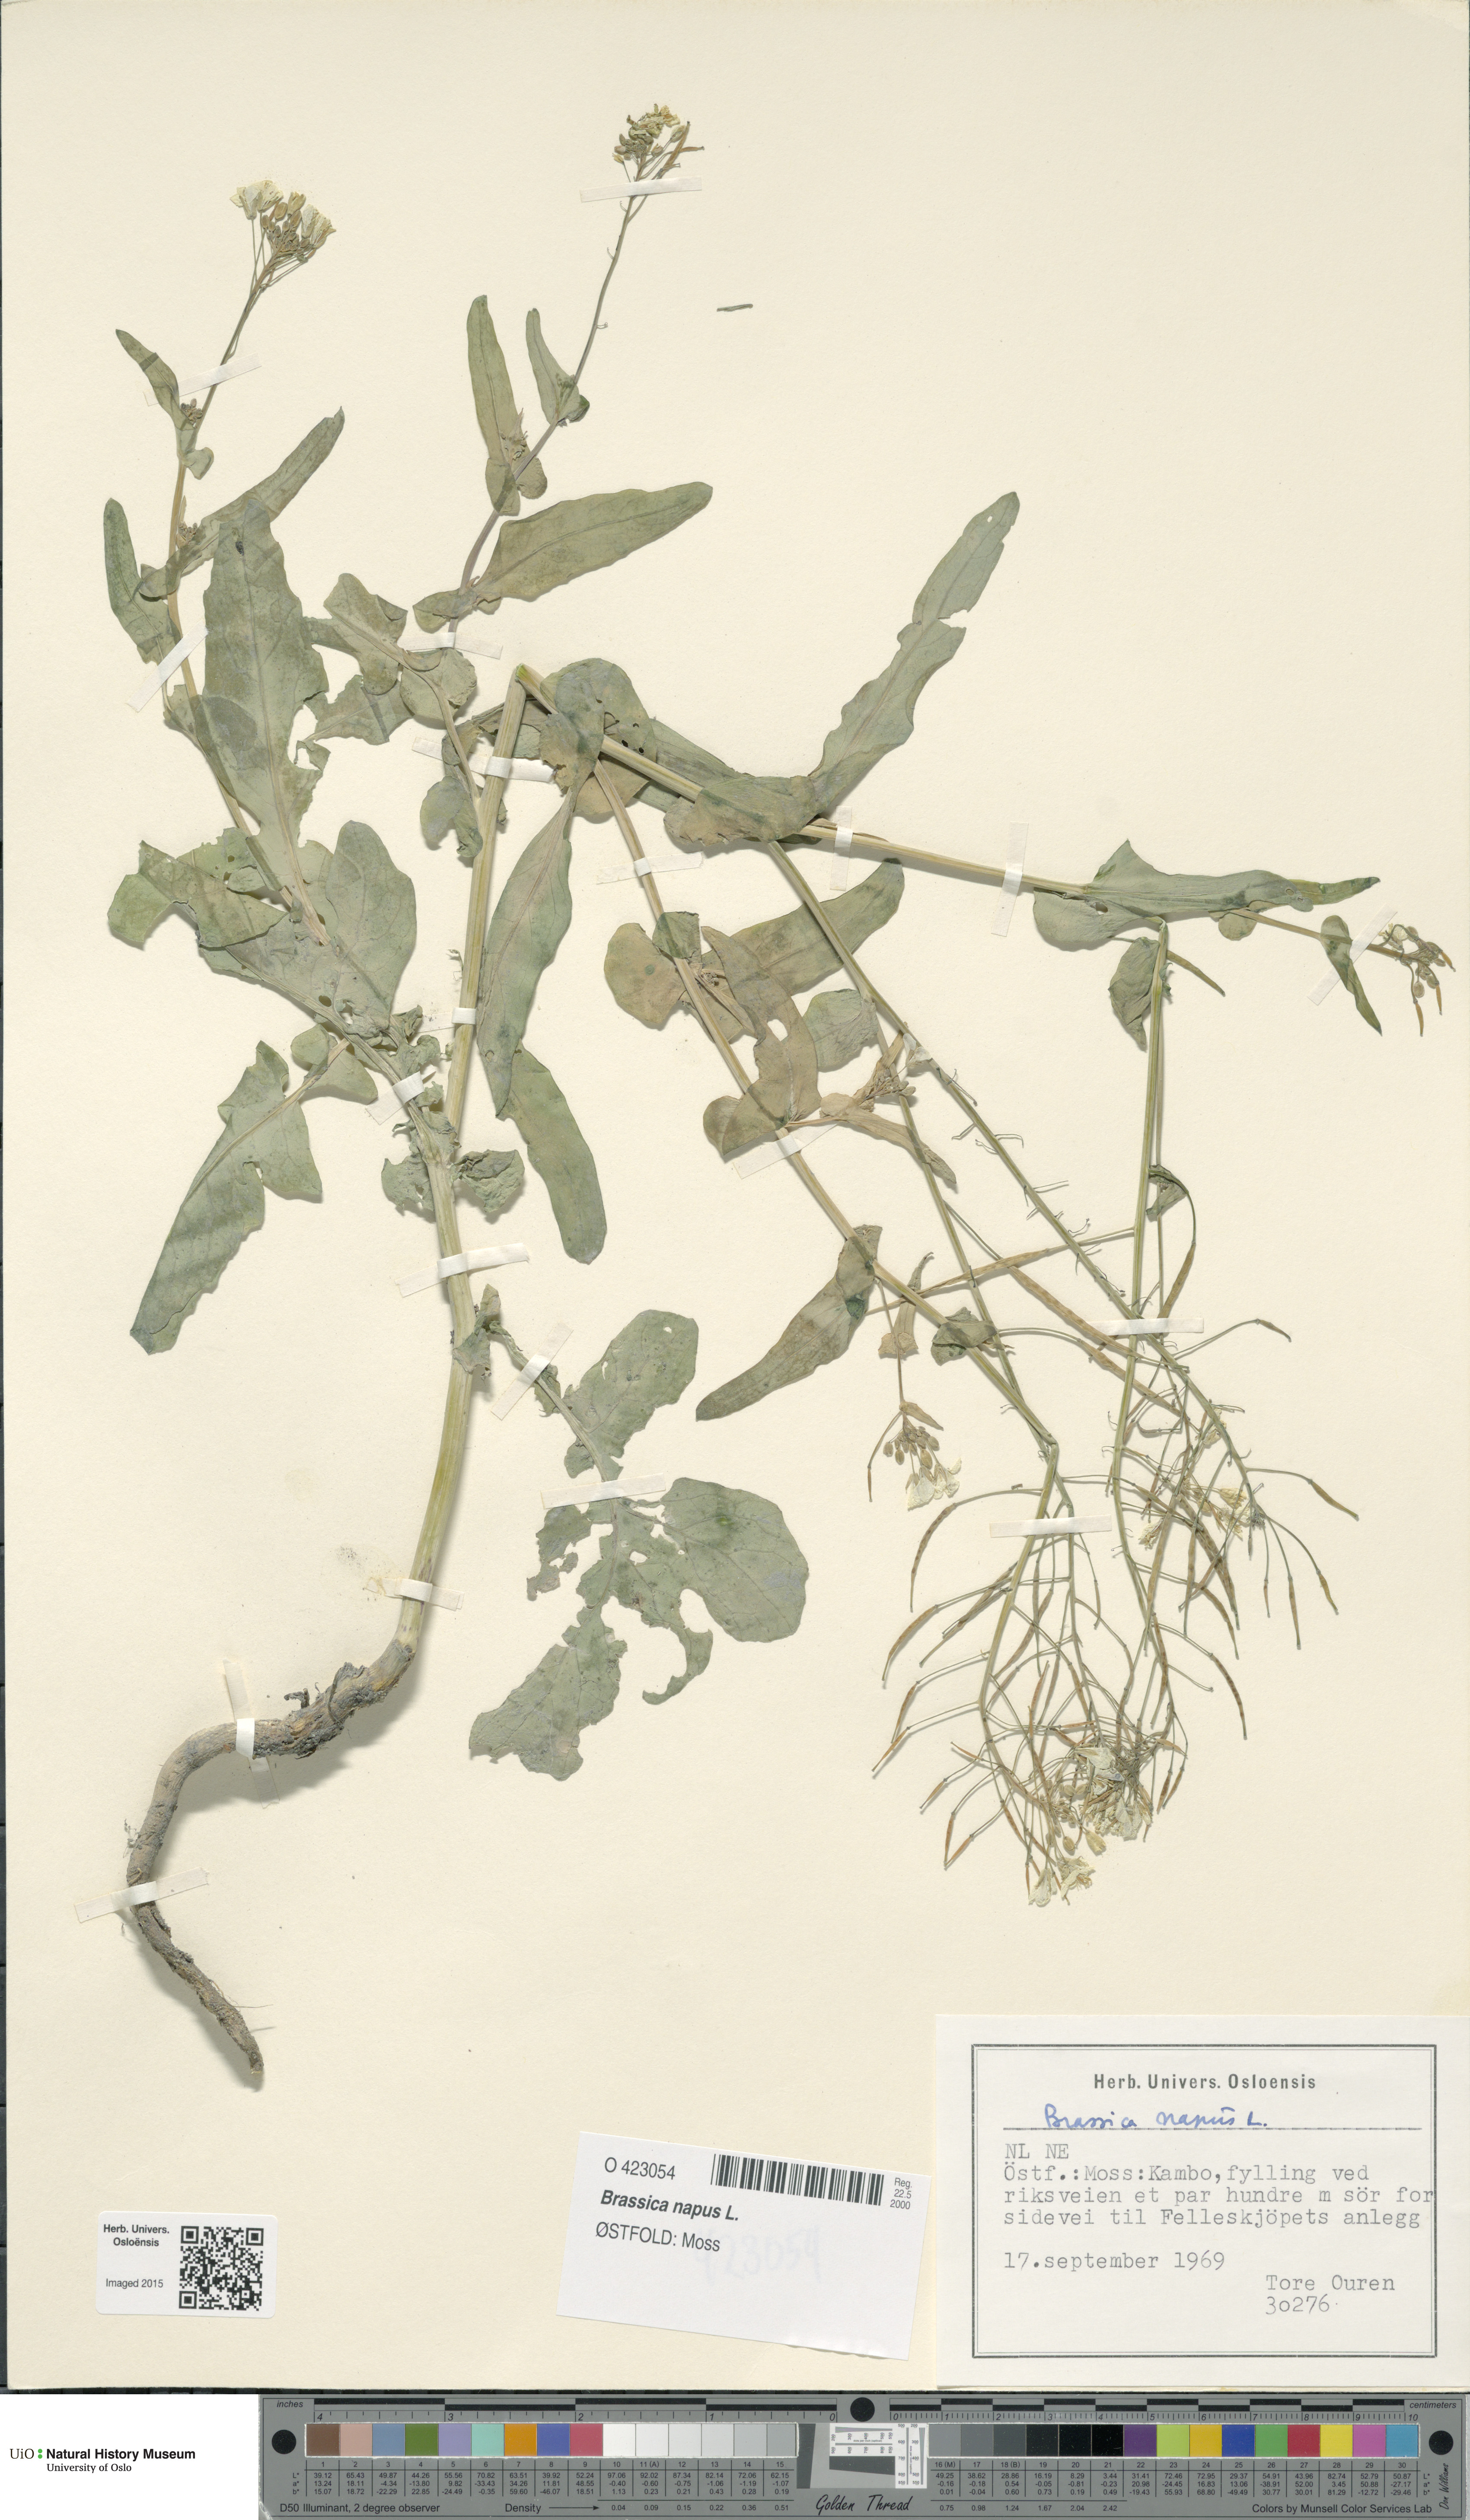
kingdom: Plantae
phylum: Tracheophyta
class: Magnoliopsida
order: Brassicales
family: Brassicaceae
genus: Brassica
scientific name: Brassica napus
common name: Rape
